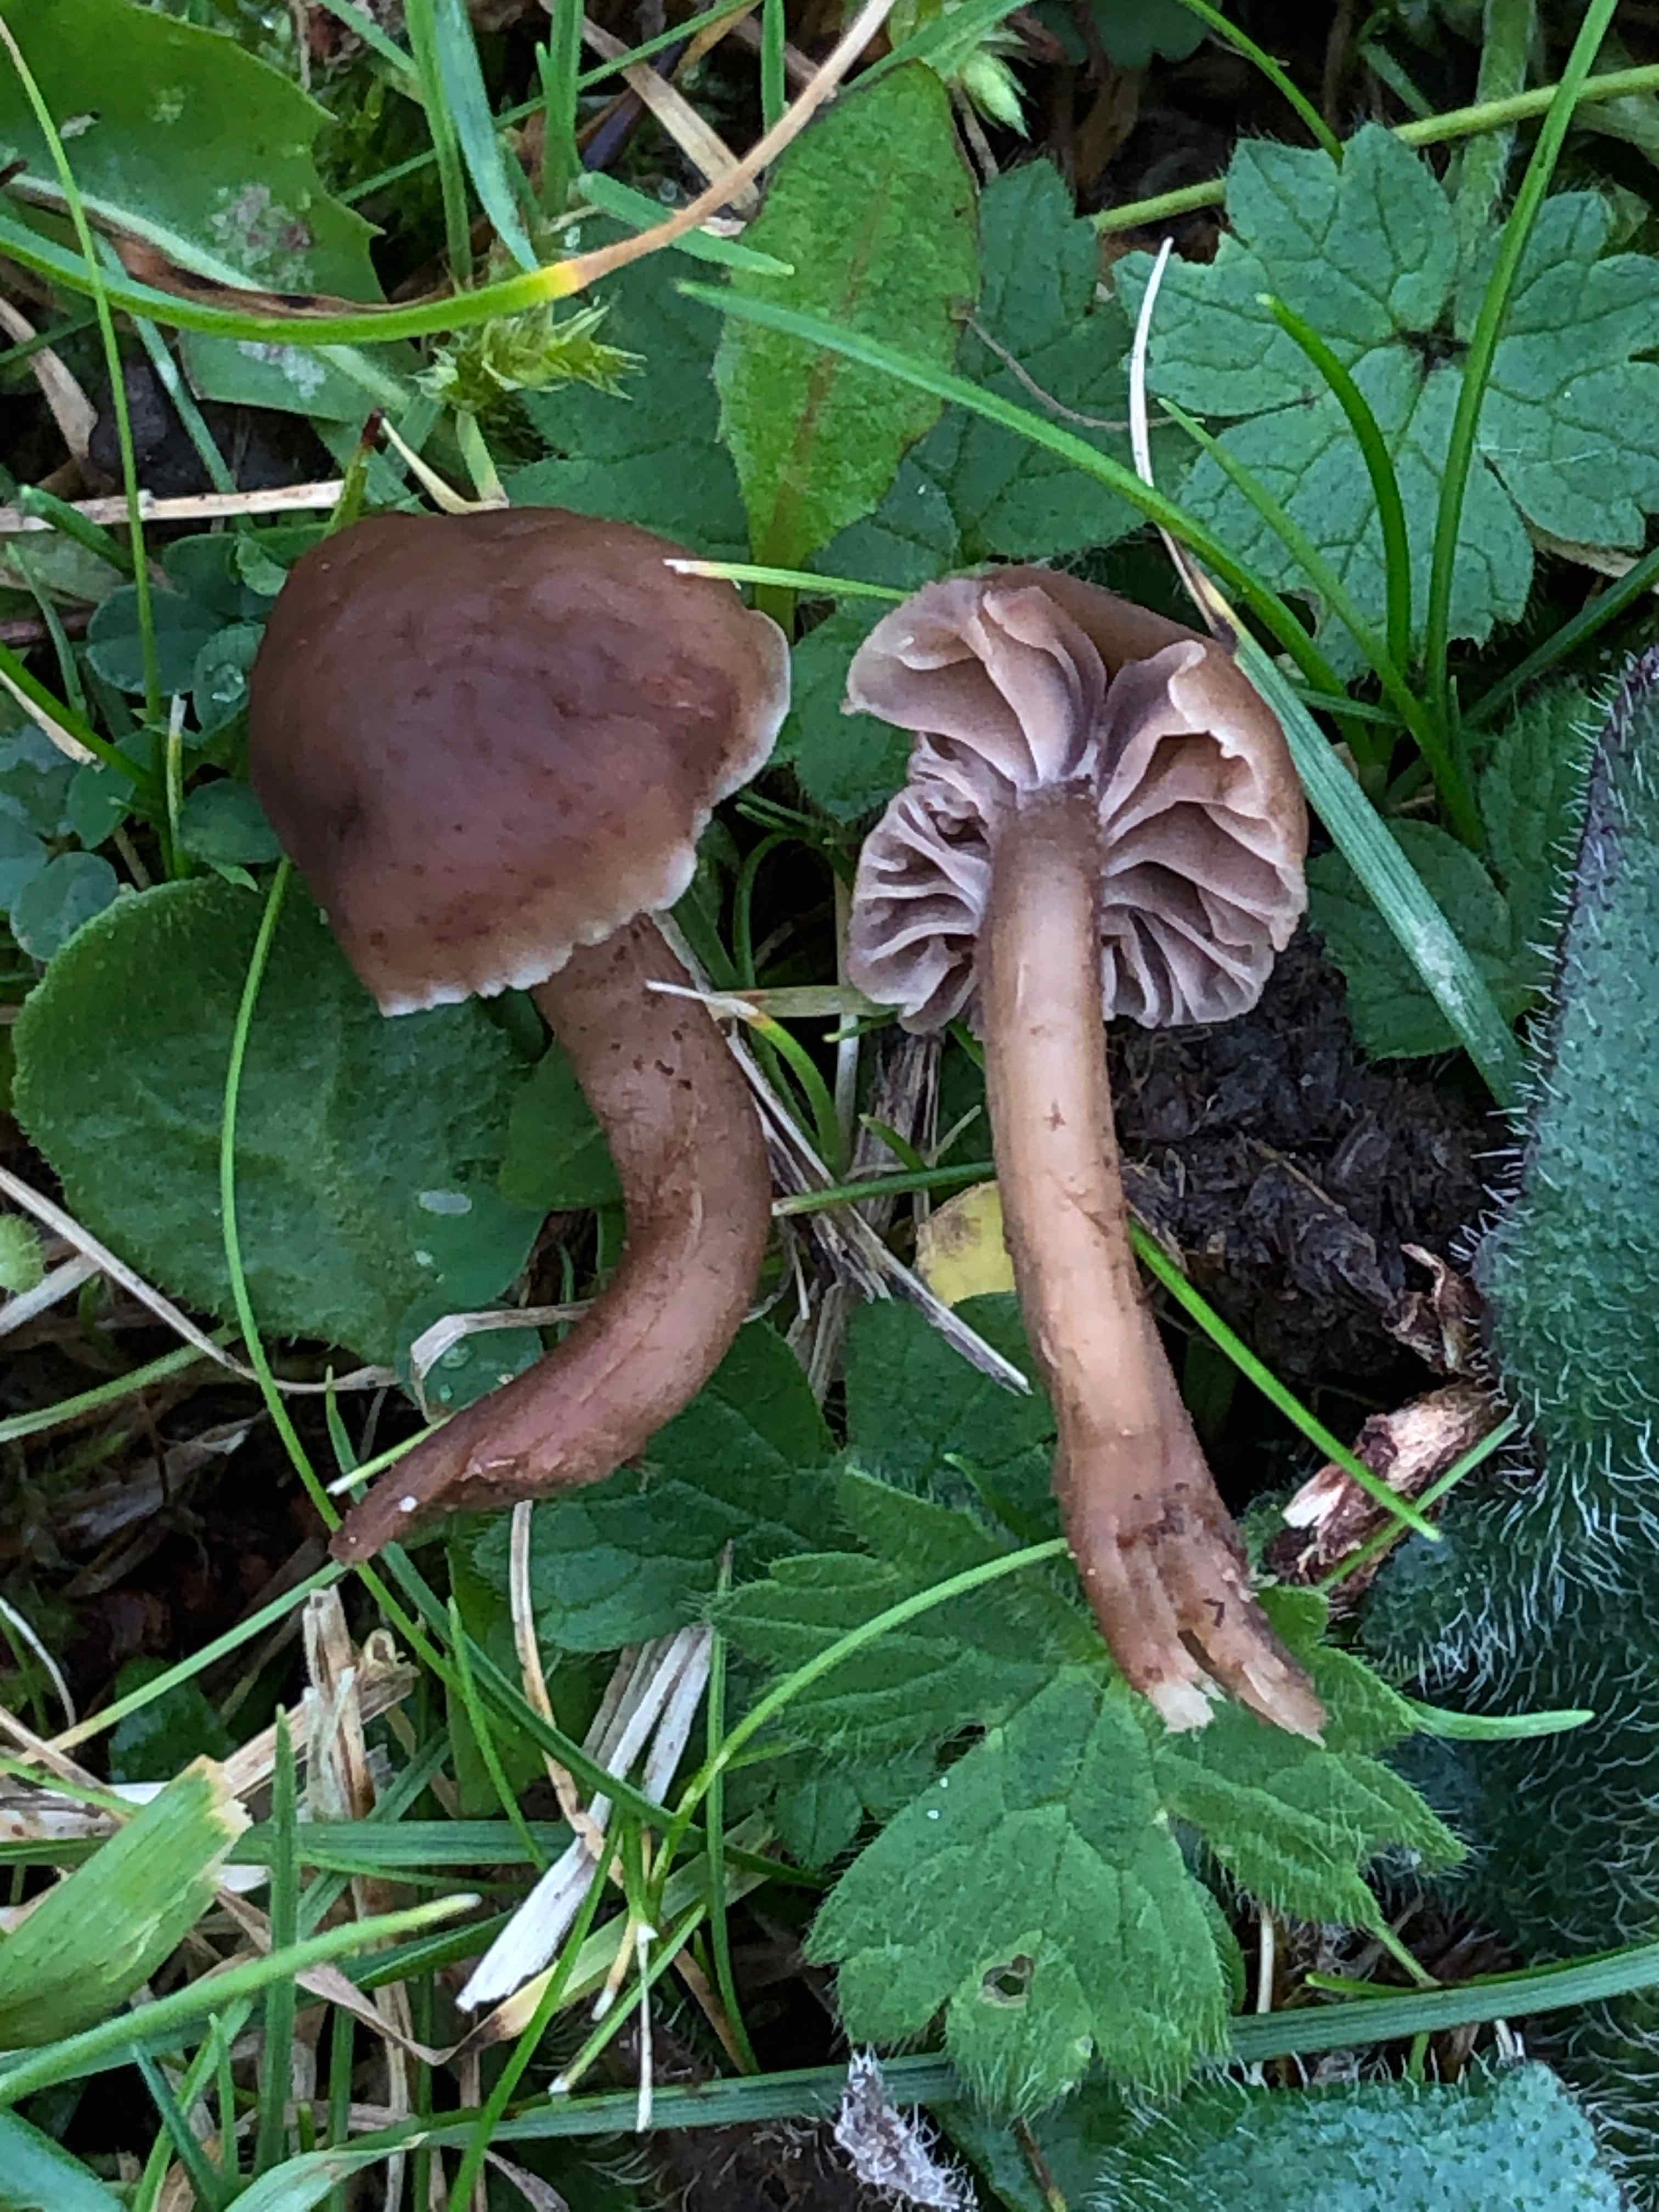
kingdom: Fungi
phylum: Basidiomycota
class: Agaricomycetes
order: Agaricales
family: Clavariaceae
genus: Hodophilus
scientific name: Hodophilus foetens
